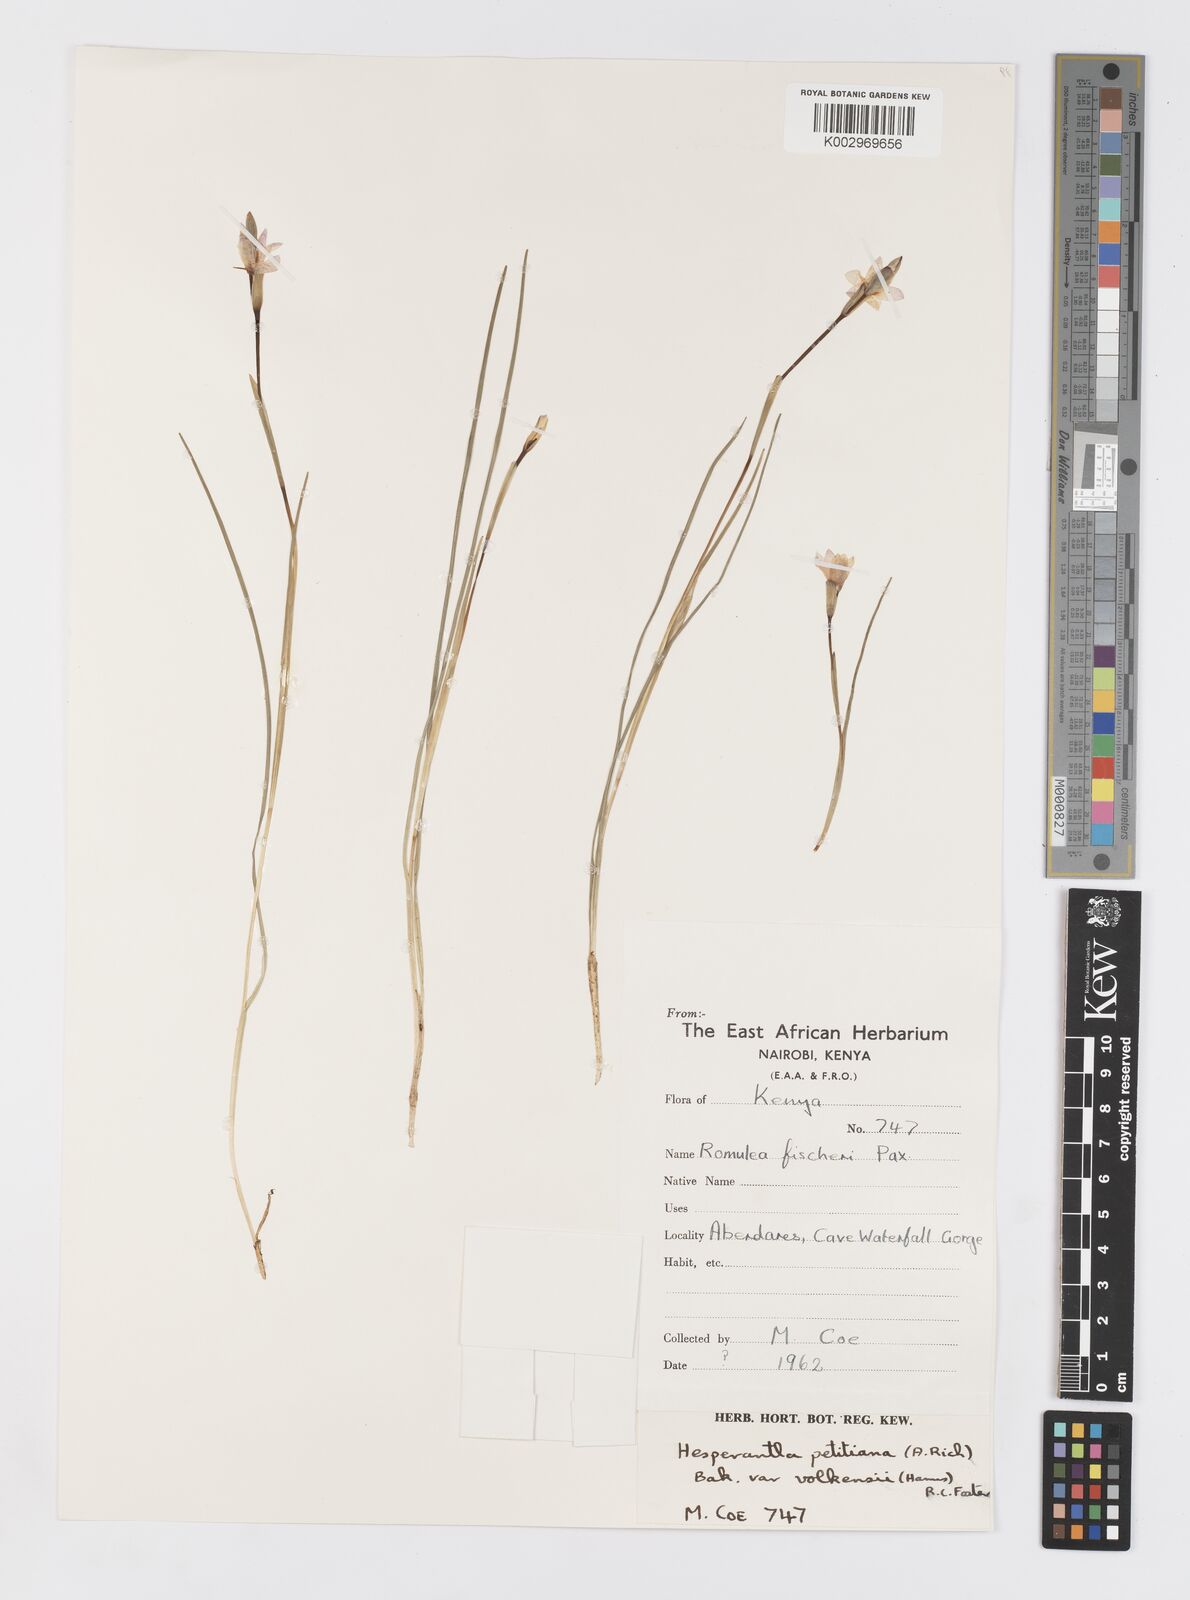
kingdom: Plantae
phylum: Tracheophyta
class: Liliopsida
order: Asparagales
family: Iridaceae
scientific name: Iridaceae
